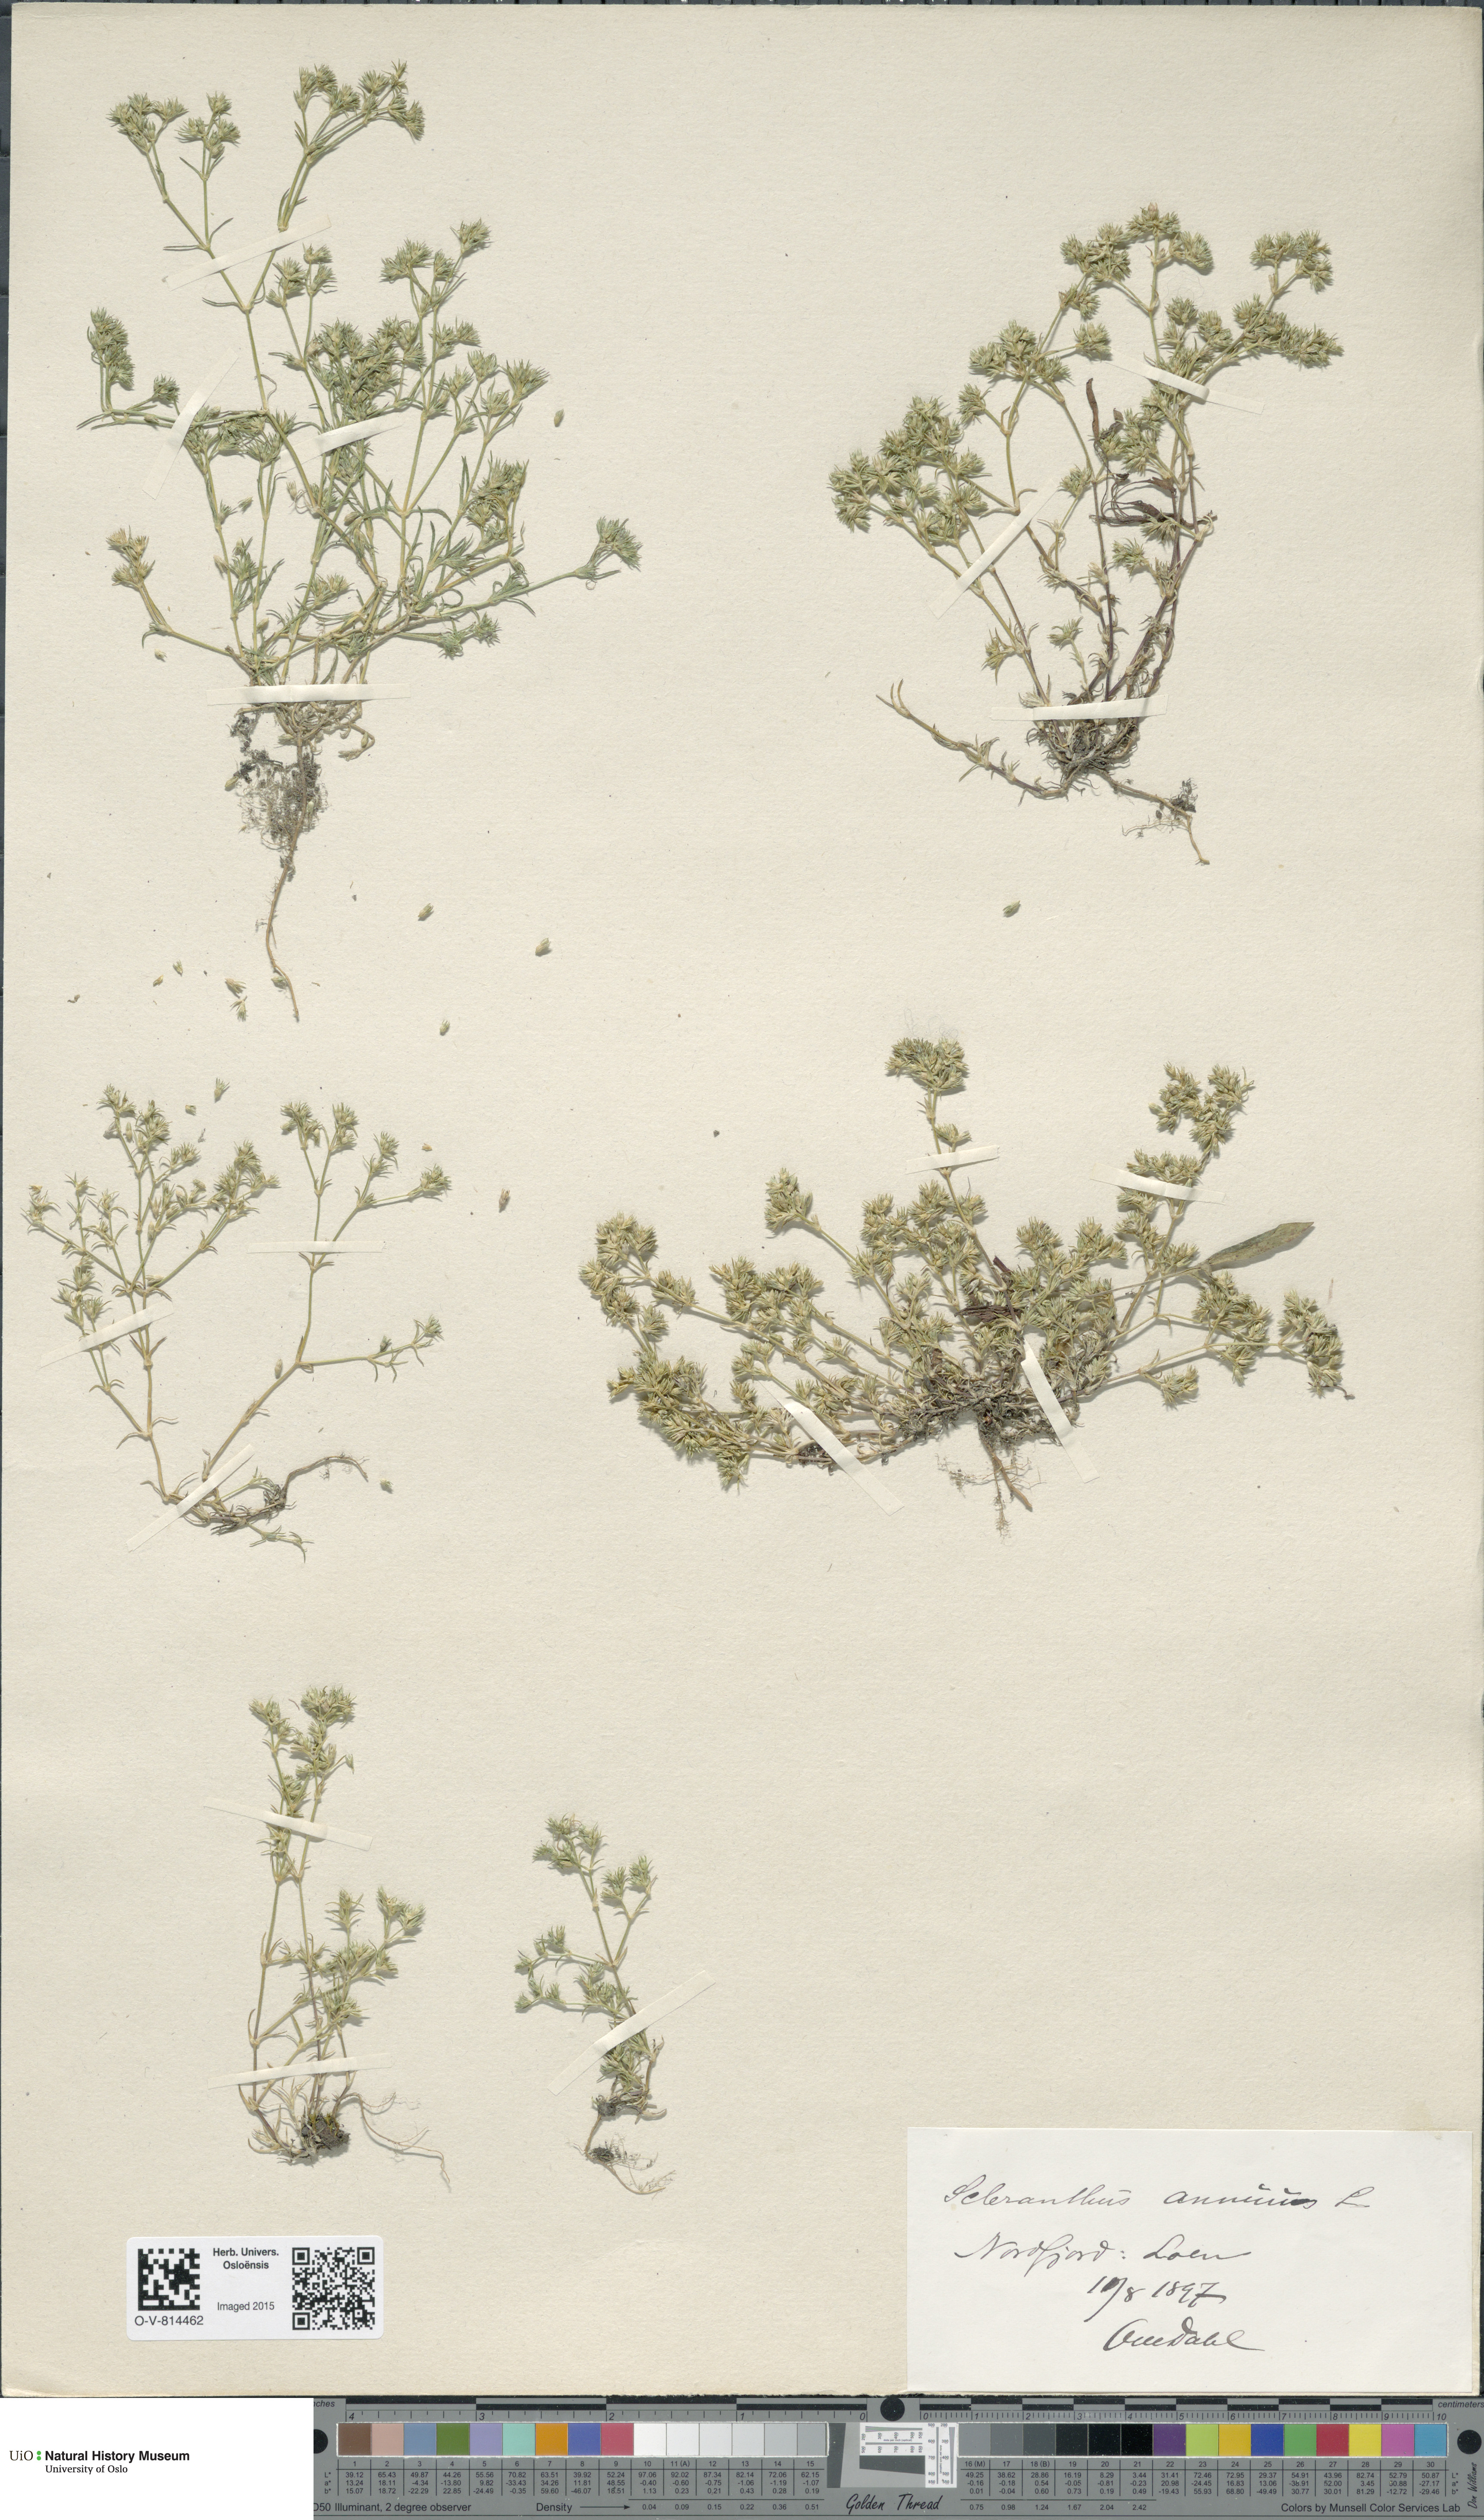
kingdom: Plantae
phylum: Tracheophyta
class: Magnoliopsida
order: Caryophyllales
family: Caryophyllaceae
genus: Scleranthus
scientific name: Scleranthus annuus
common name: Annual knawel
